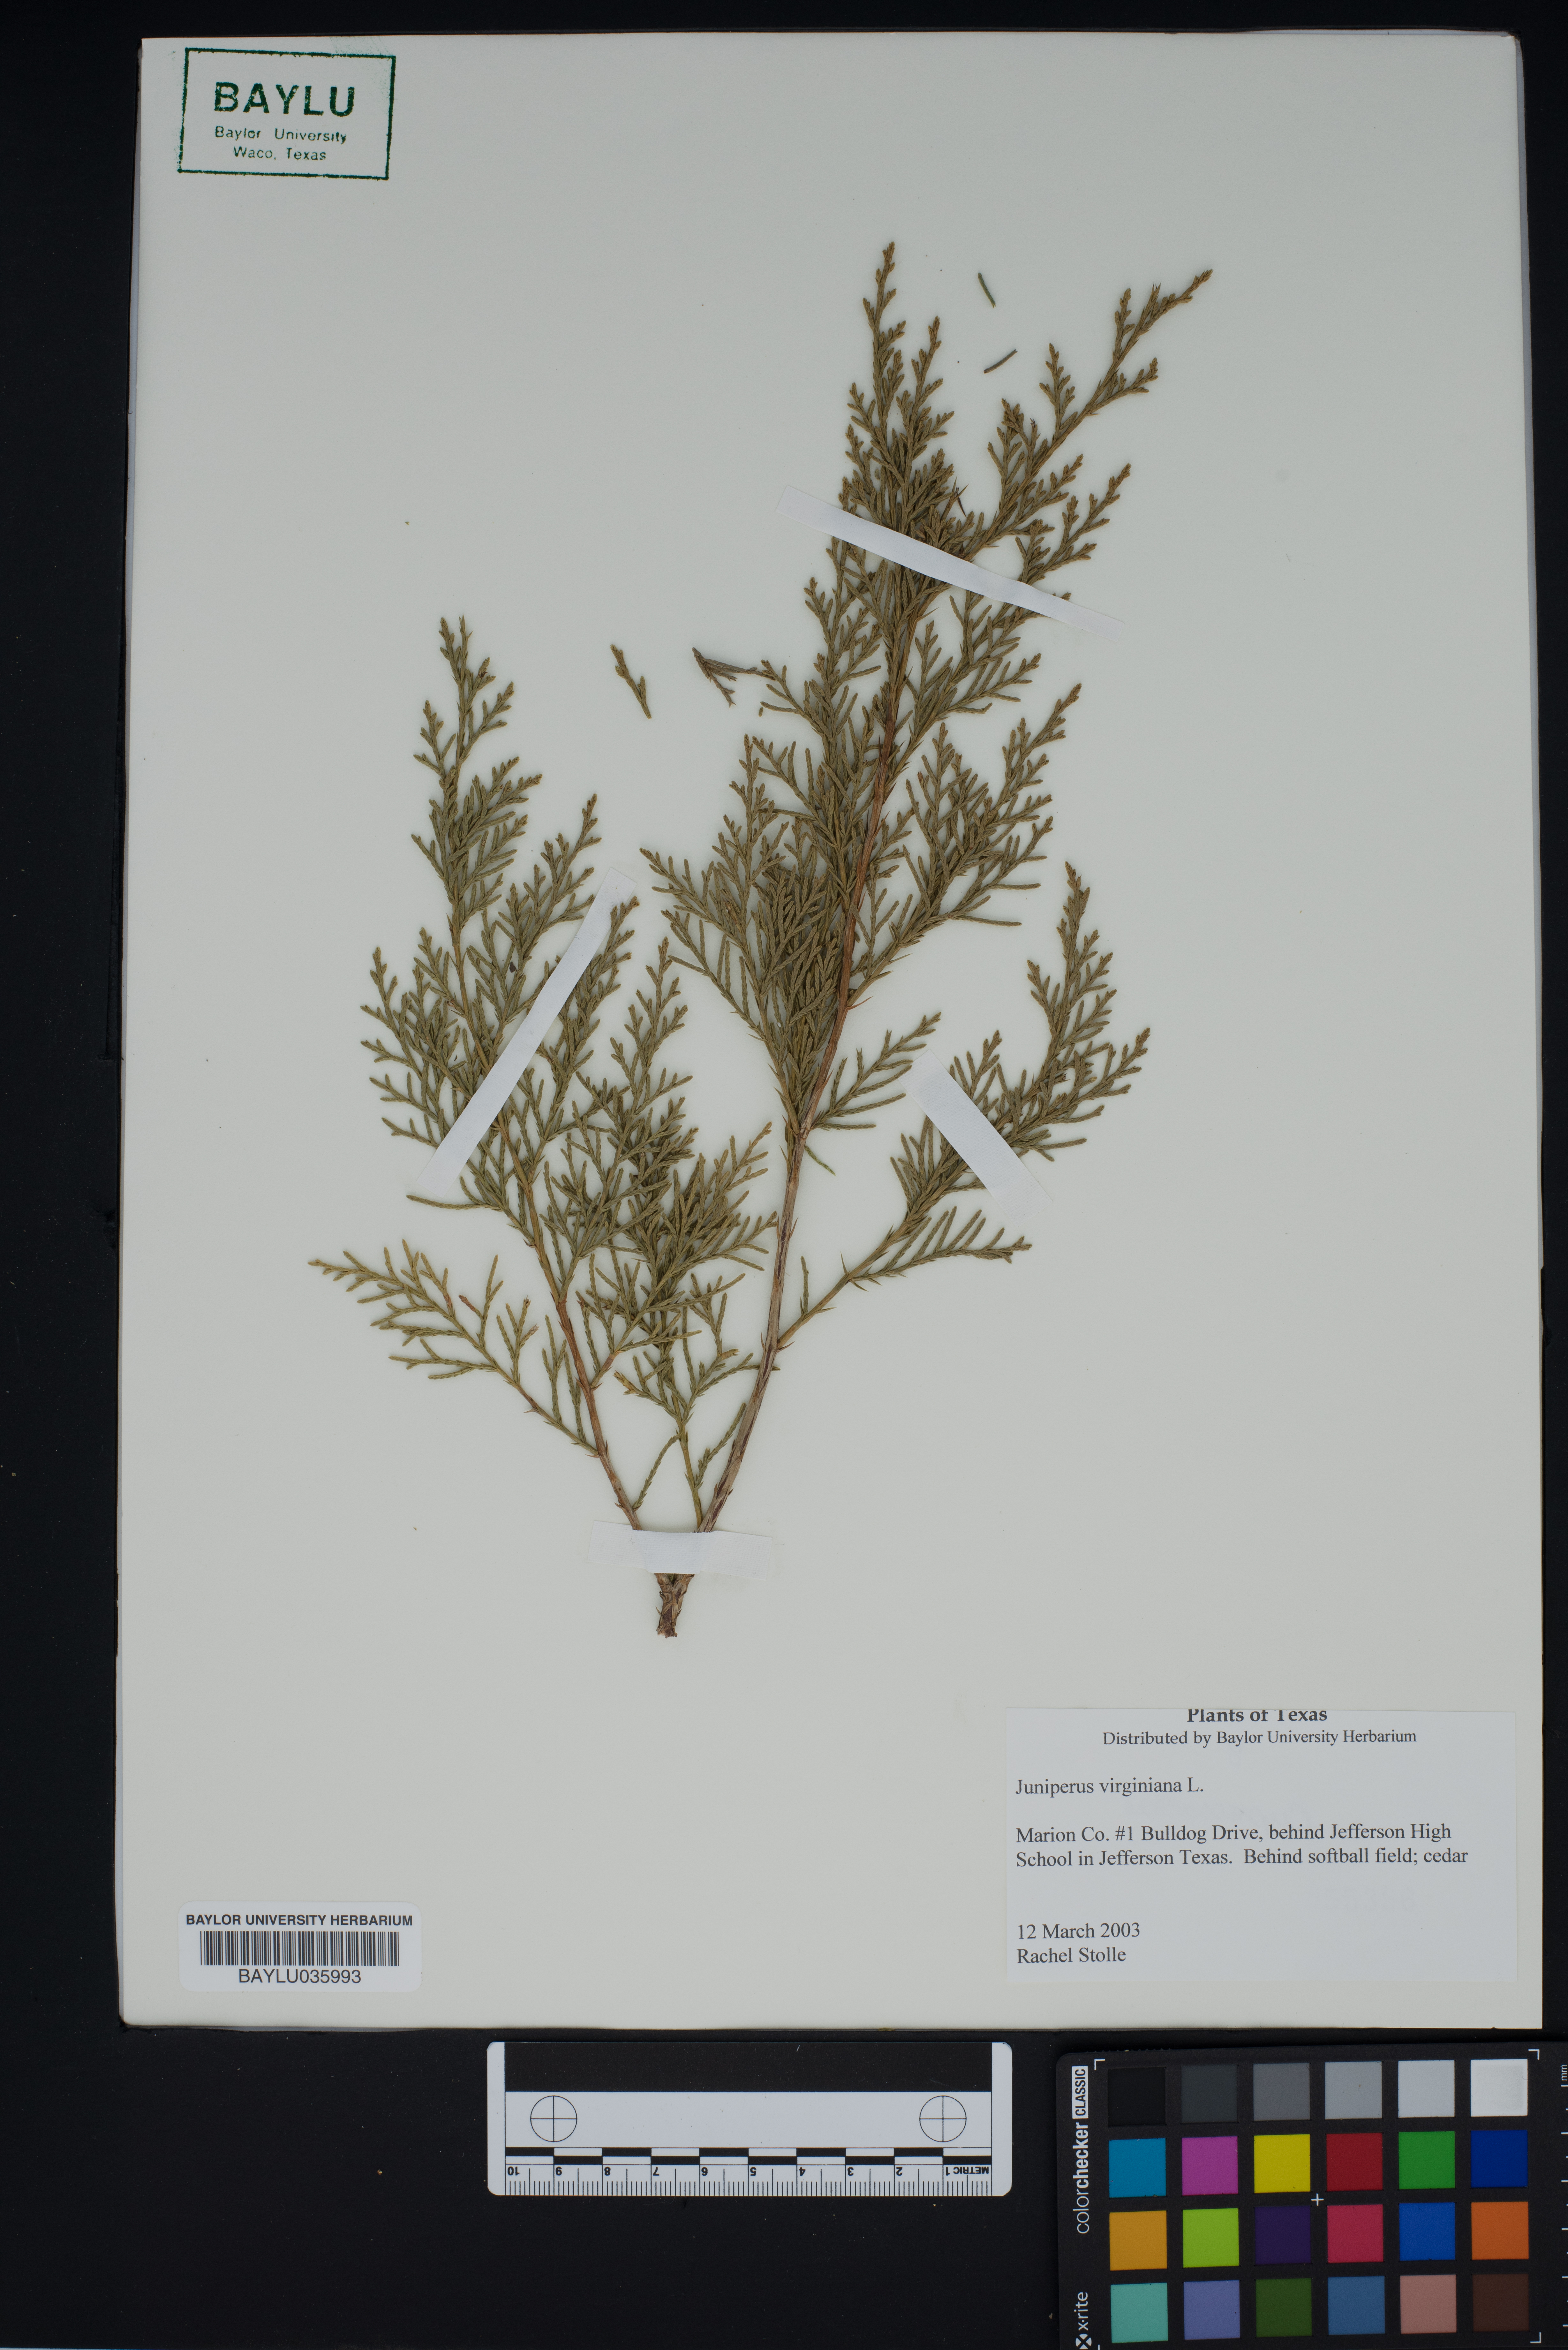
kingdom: Plantae
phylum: Tracheophyta
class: Pinopsida
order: Pinales
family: Cupressaceae
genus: Juniperus
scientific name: Juniperus virginiana
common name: Red juniper
